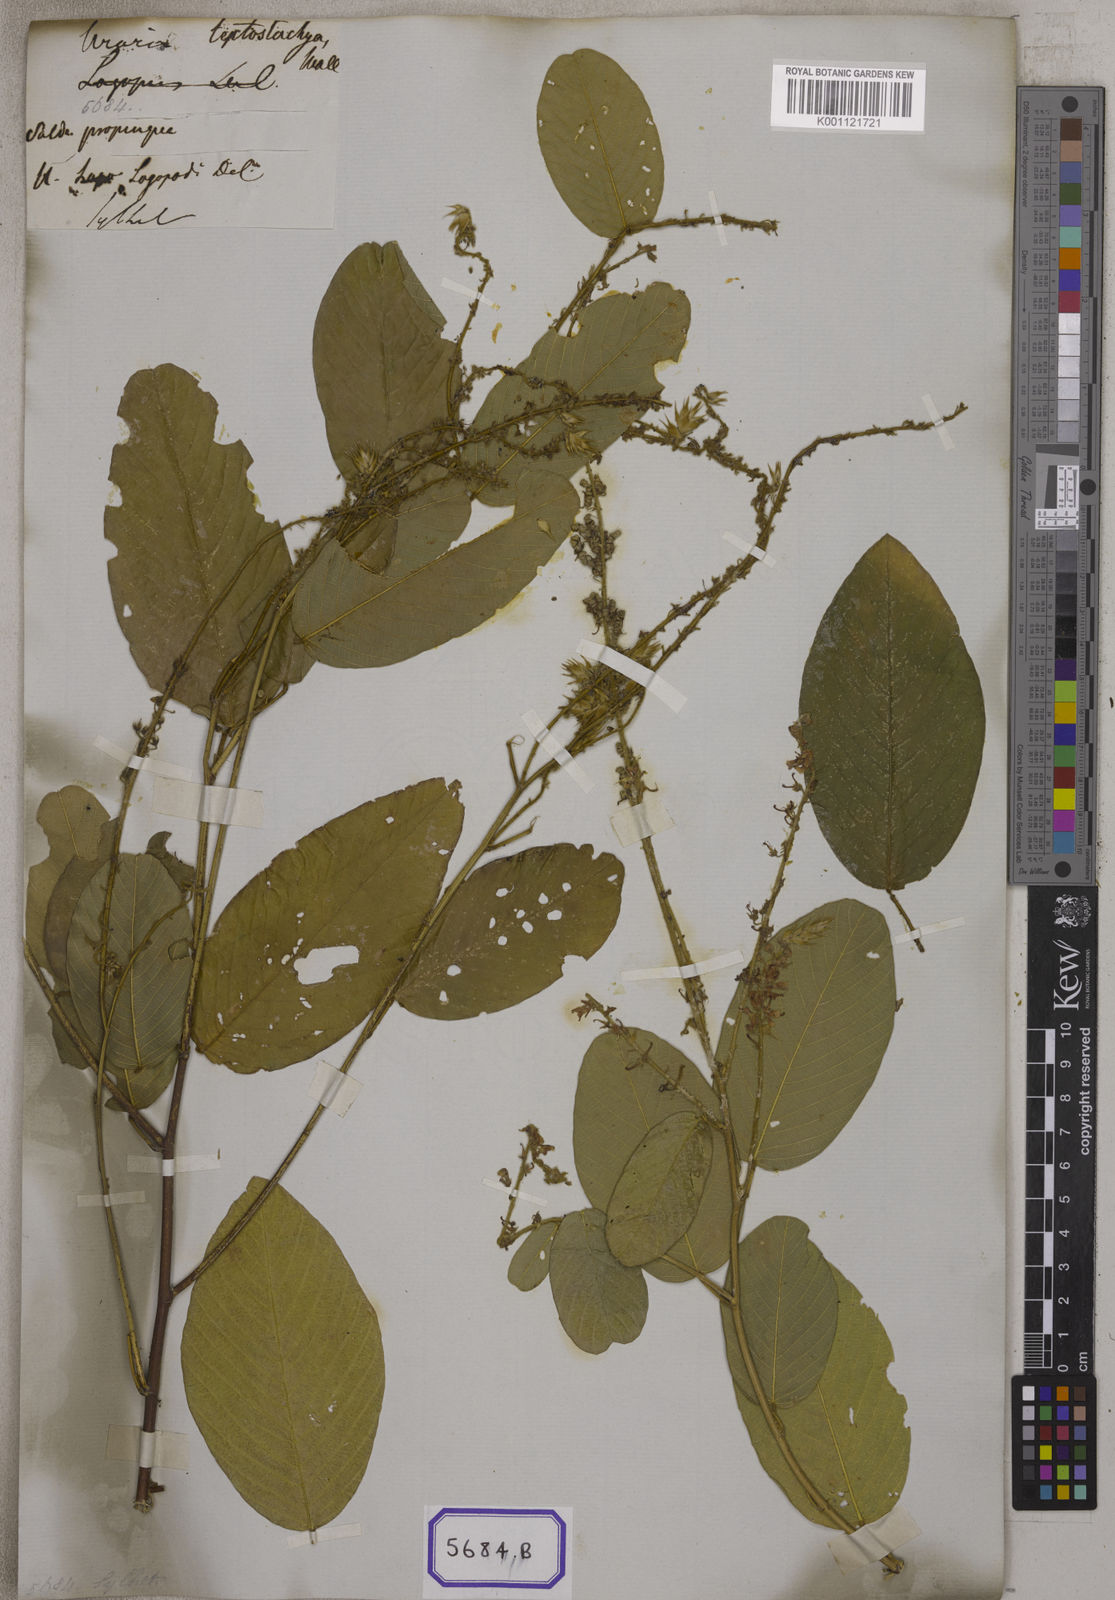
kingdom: Plantae
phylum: Tracheophyta
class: Magnoliopsida
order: Fabales
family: Fabaceae
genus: Uraria
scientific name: Uraria
